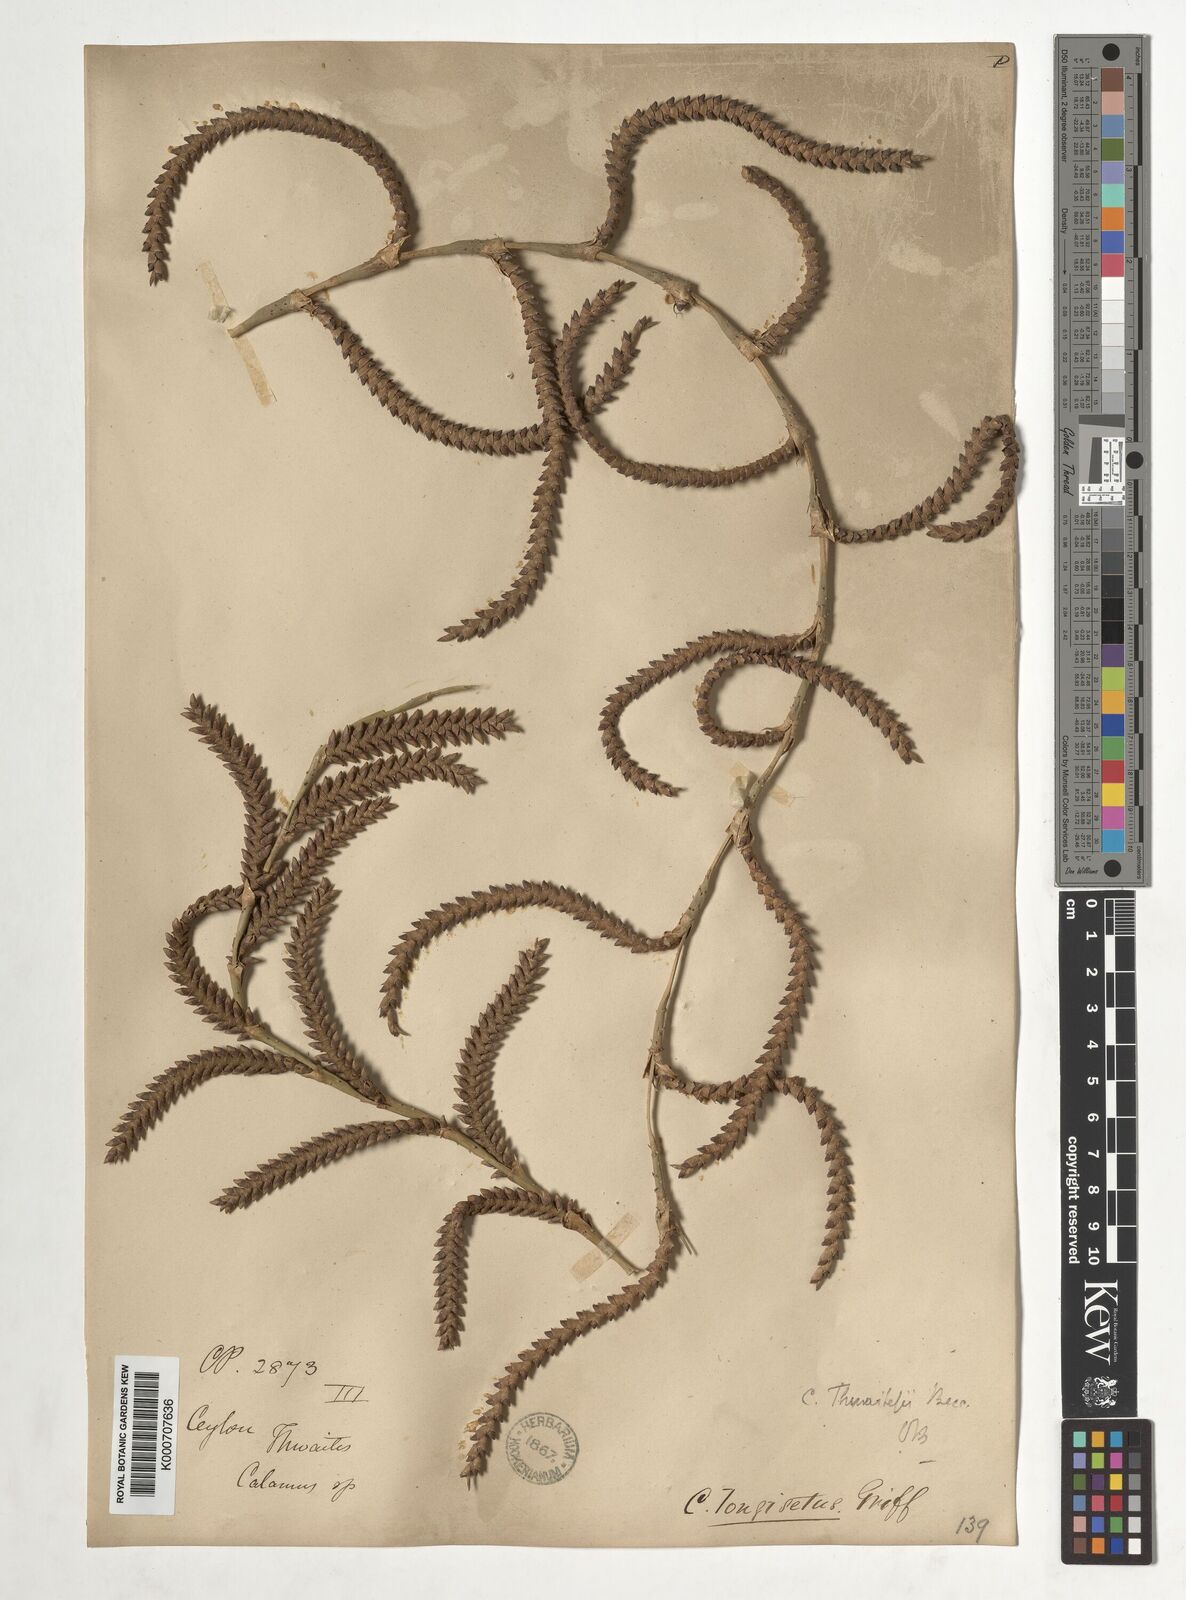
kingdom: Plantae
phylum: Tracheophyta
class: Liliopsida
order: Arecales
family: Arecaceae
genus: Calamus
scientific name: Calamus thwaitesii
